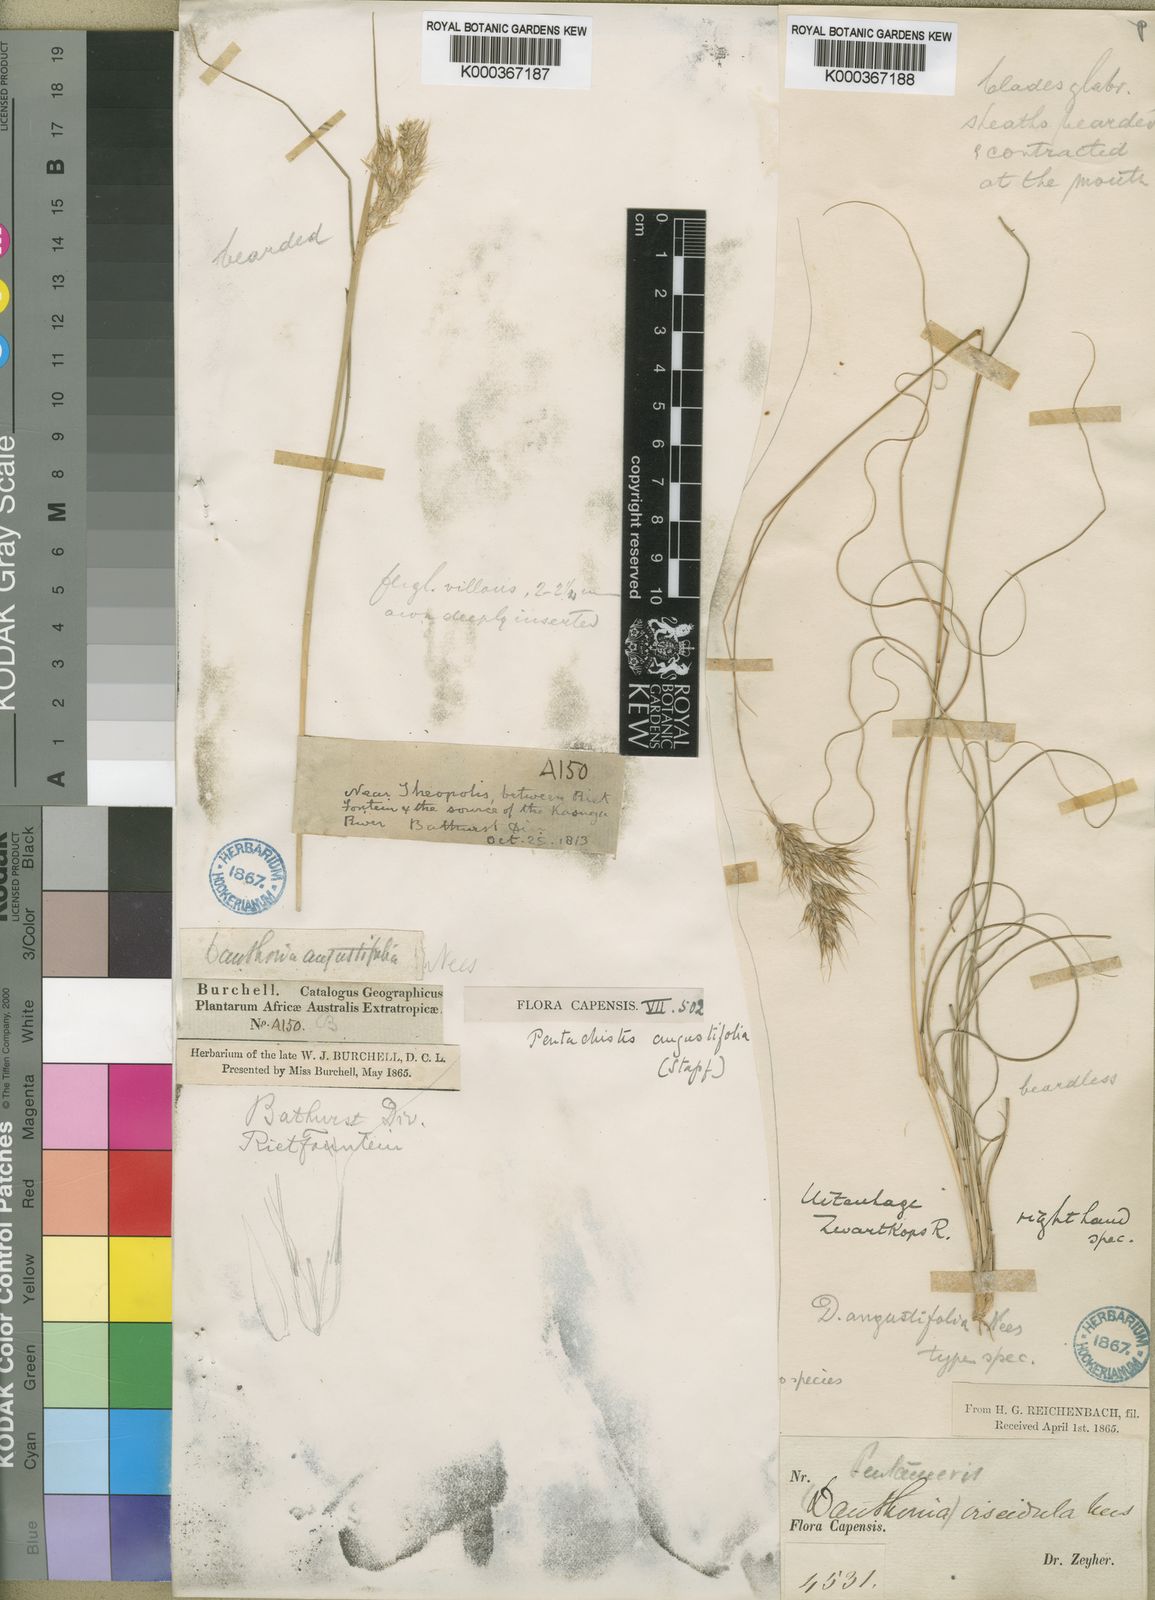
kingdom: Plantae
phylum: Tracheophyta
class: Liliopsida
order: Poales
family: Poaceae
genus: Pentameris
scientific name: Pentameris pallida
